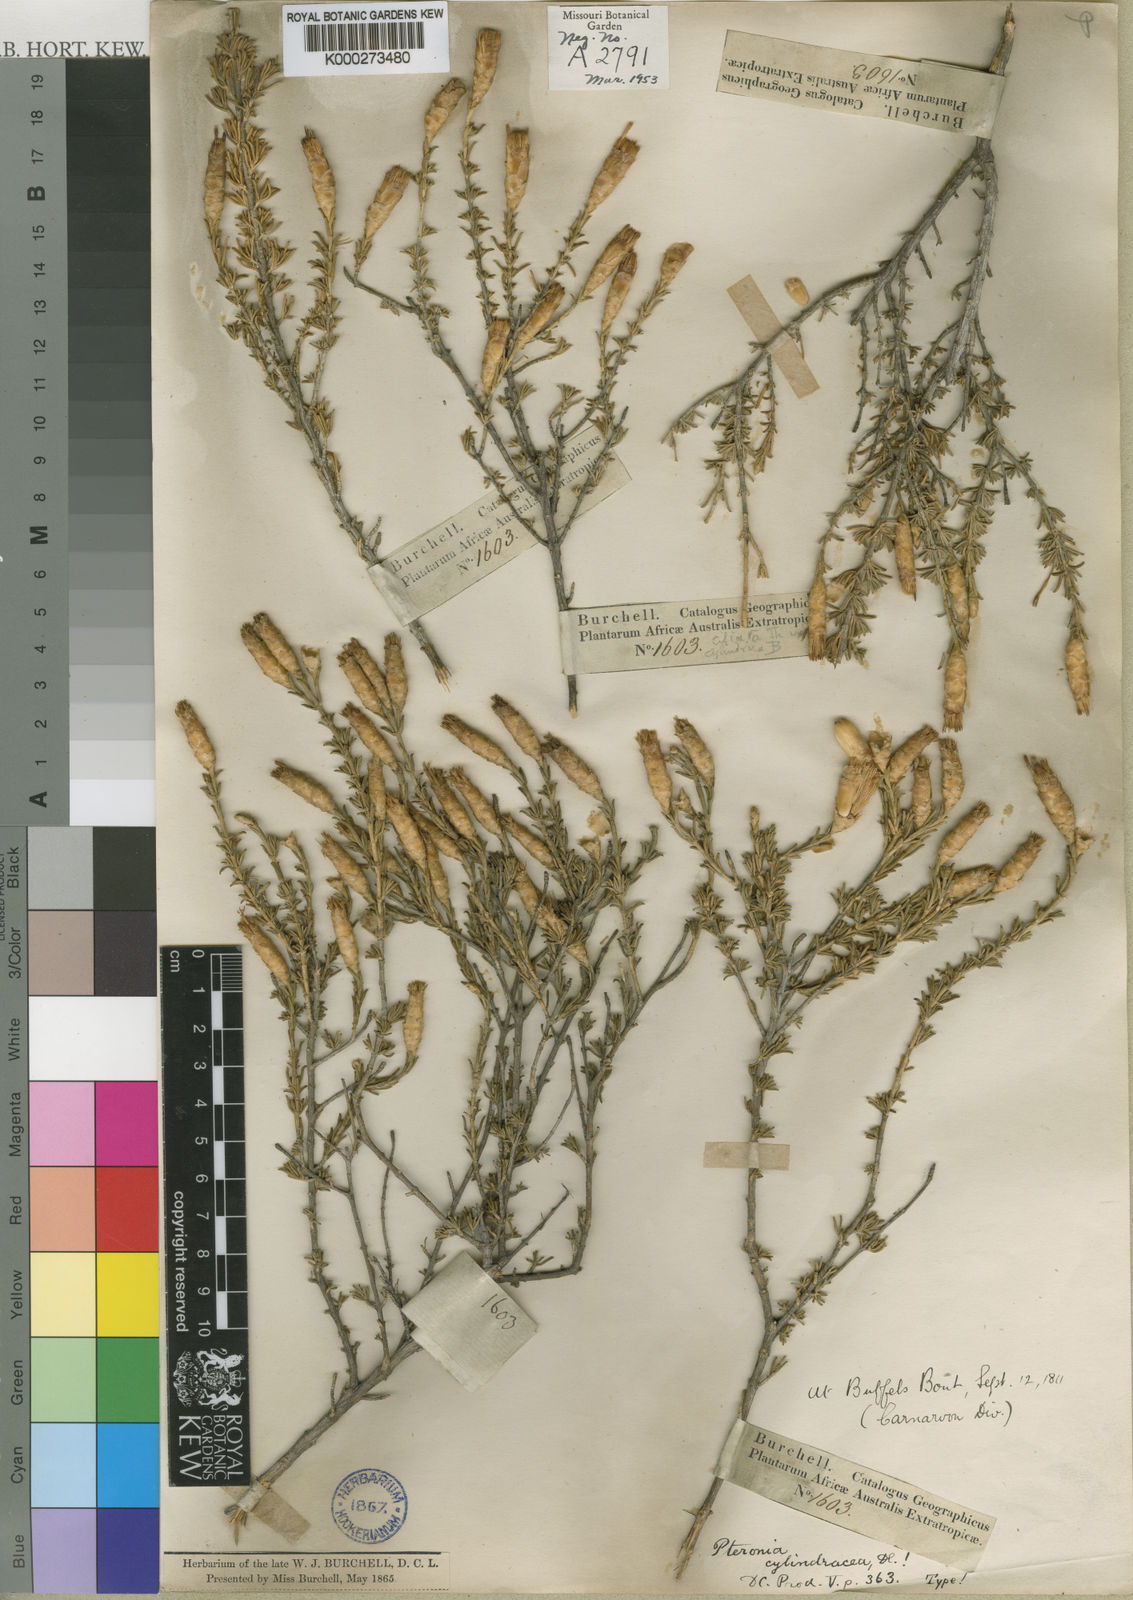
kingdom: Plantae
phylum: Tracheophyta
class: Magnoliopsida
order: Asterales
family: Asteraceae
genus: Pteronia
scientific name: Pteronia cylindracea
